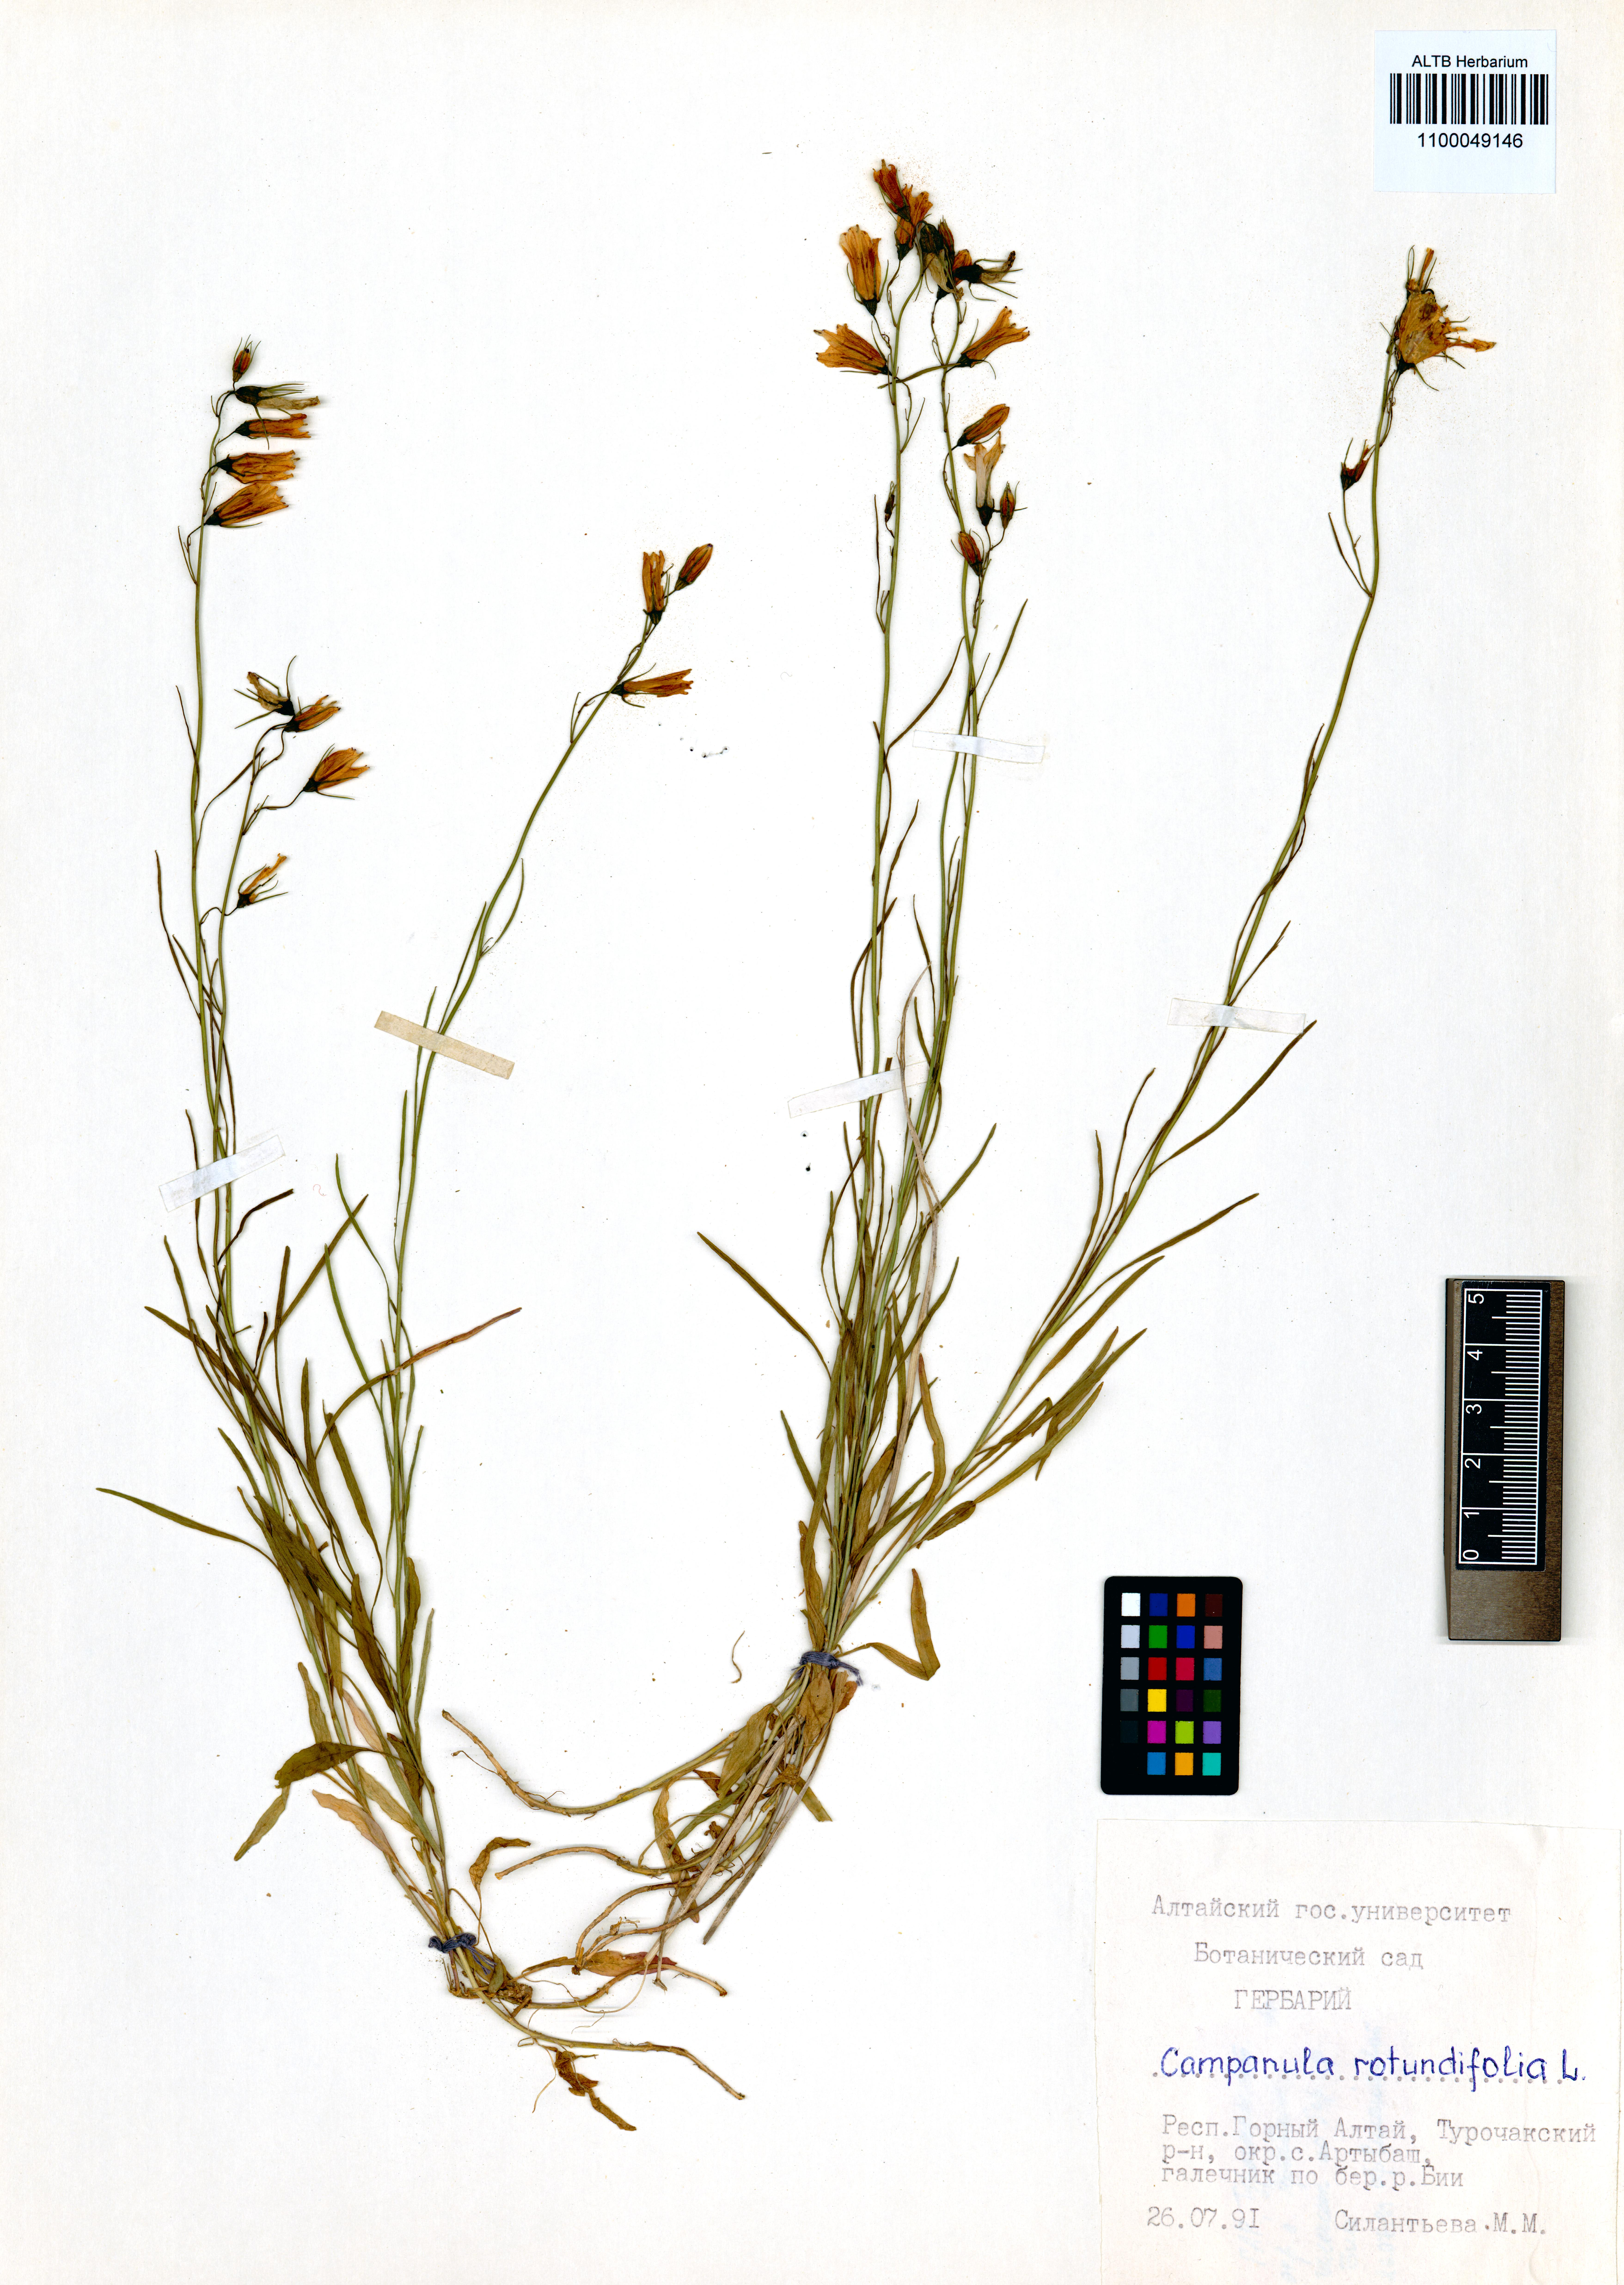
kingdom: Plantae
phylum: Tracheophyta
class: Magnoliopsida
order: Asterales
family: Campanulaceae
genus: Campanula
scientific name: Campanula rotundifolia
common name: Harebell
